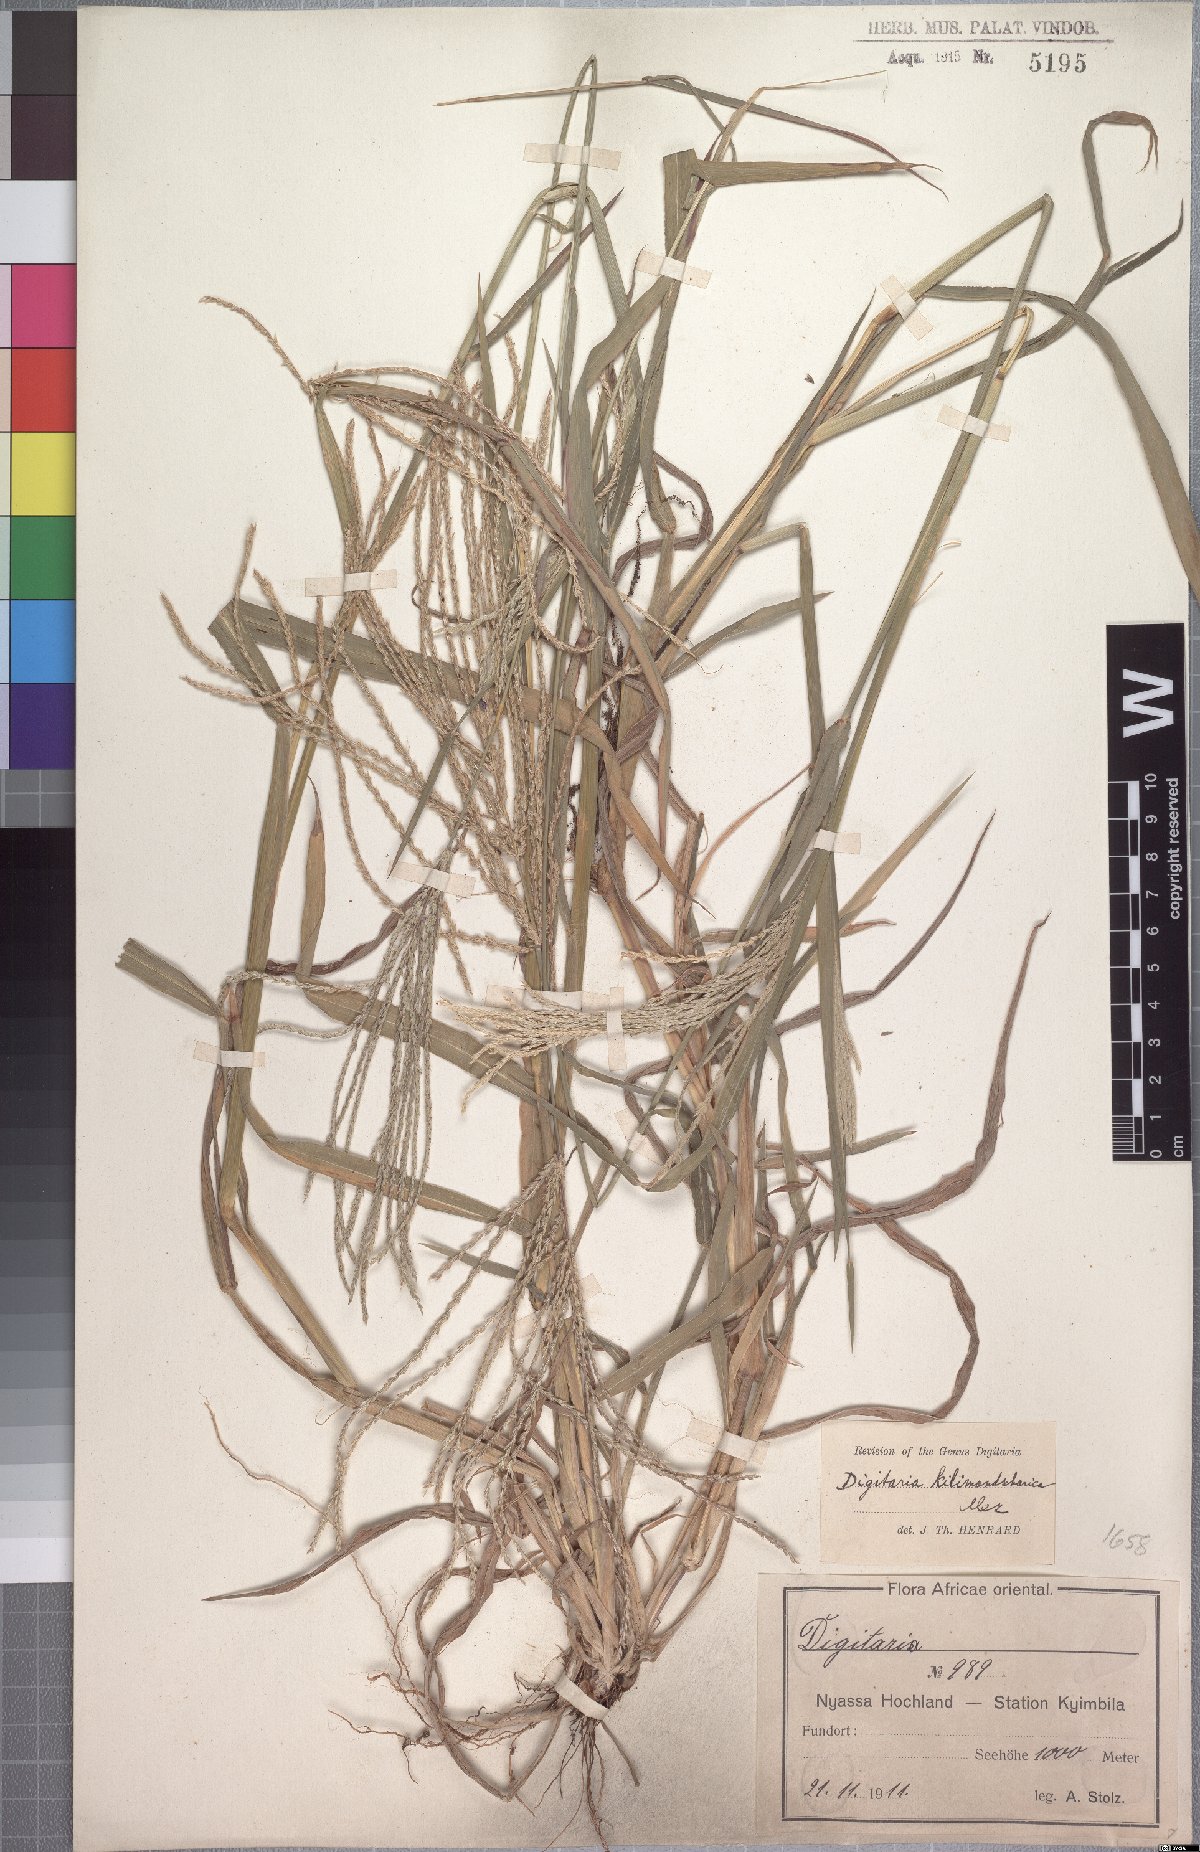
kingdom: Plantae
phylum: Tracheophyta
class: Liliopsida
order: Poales
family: Poaceae
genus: Digitaria
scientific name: Digitaria milanjiana
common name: Madagascar crabgrass
